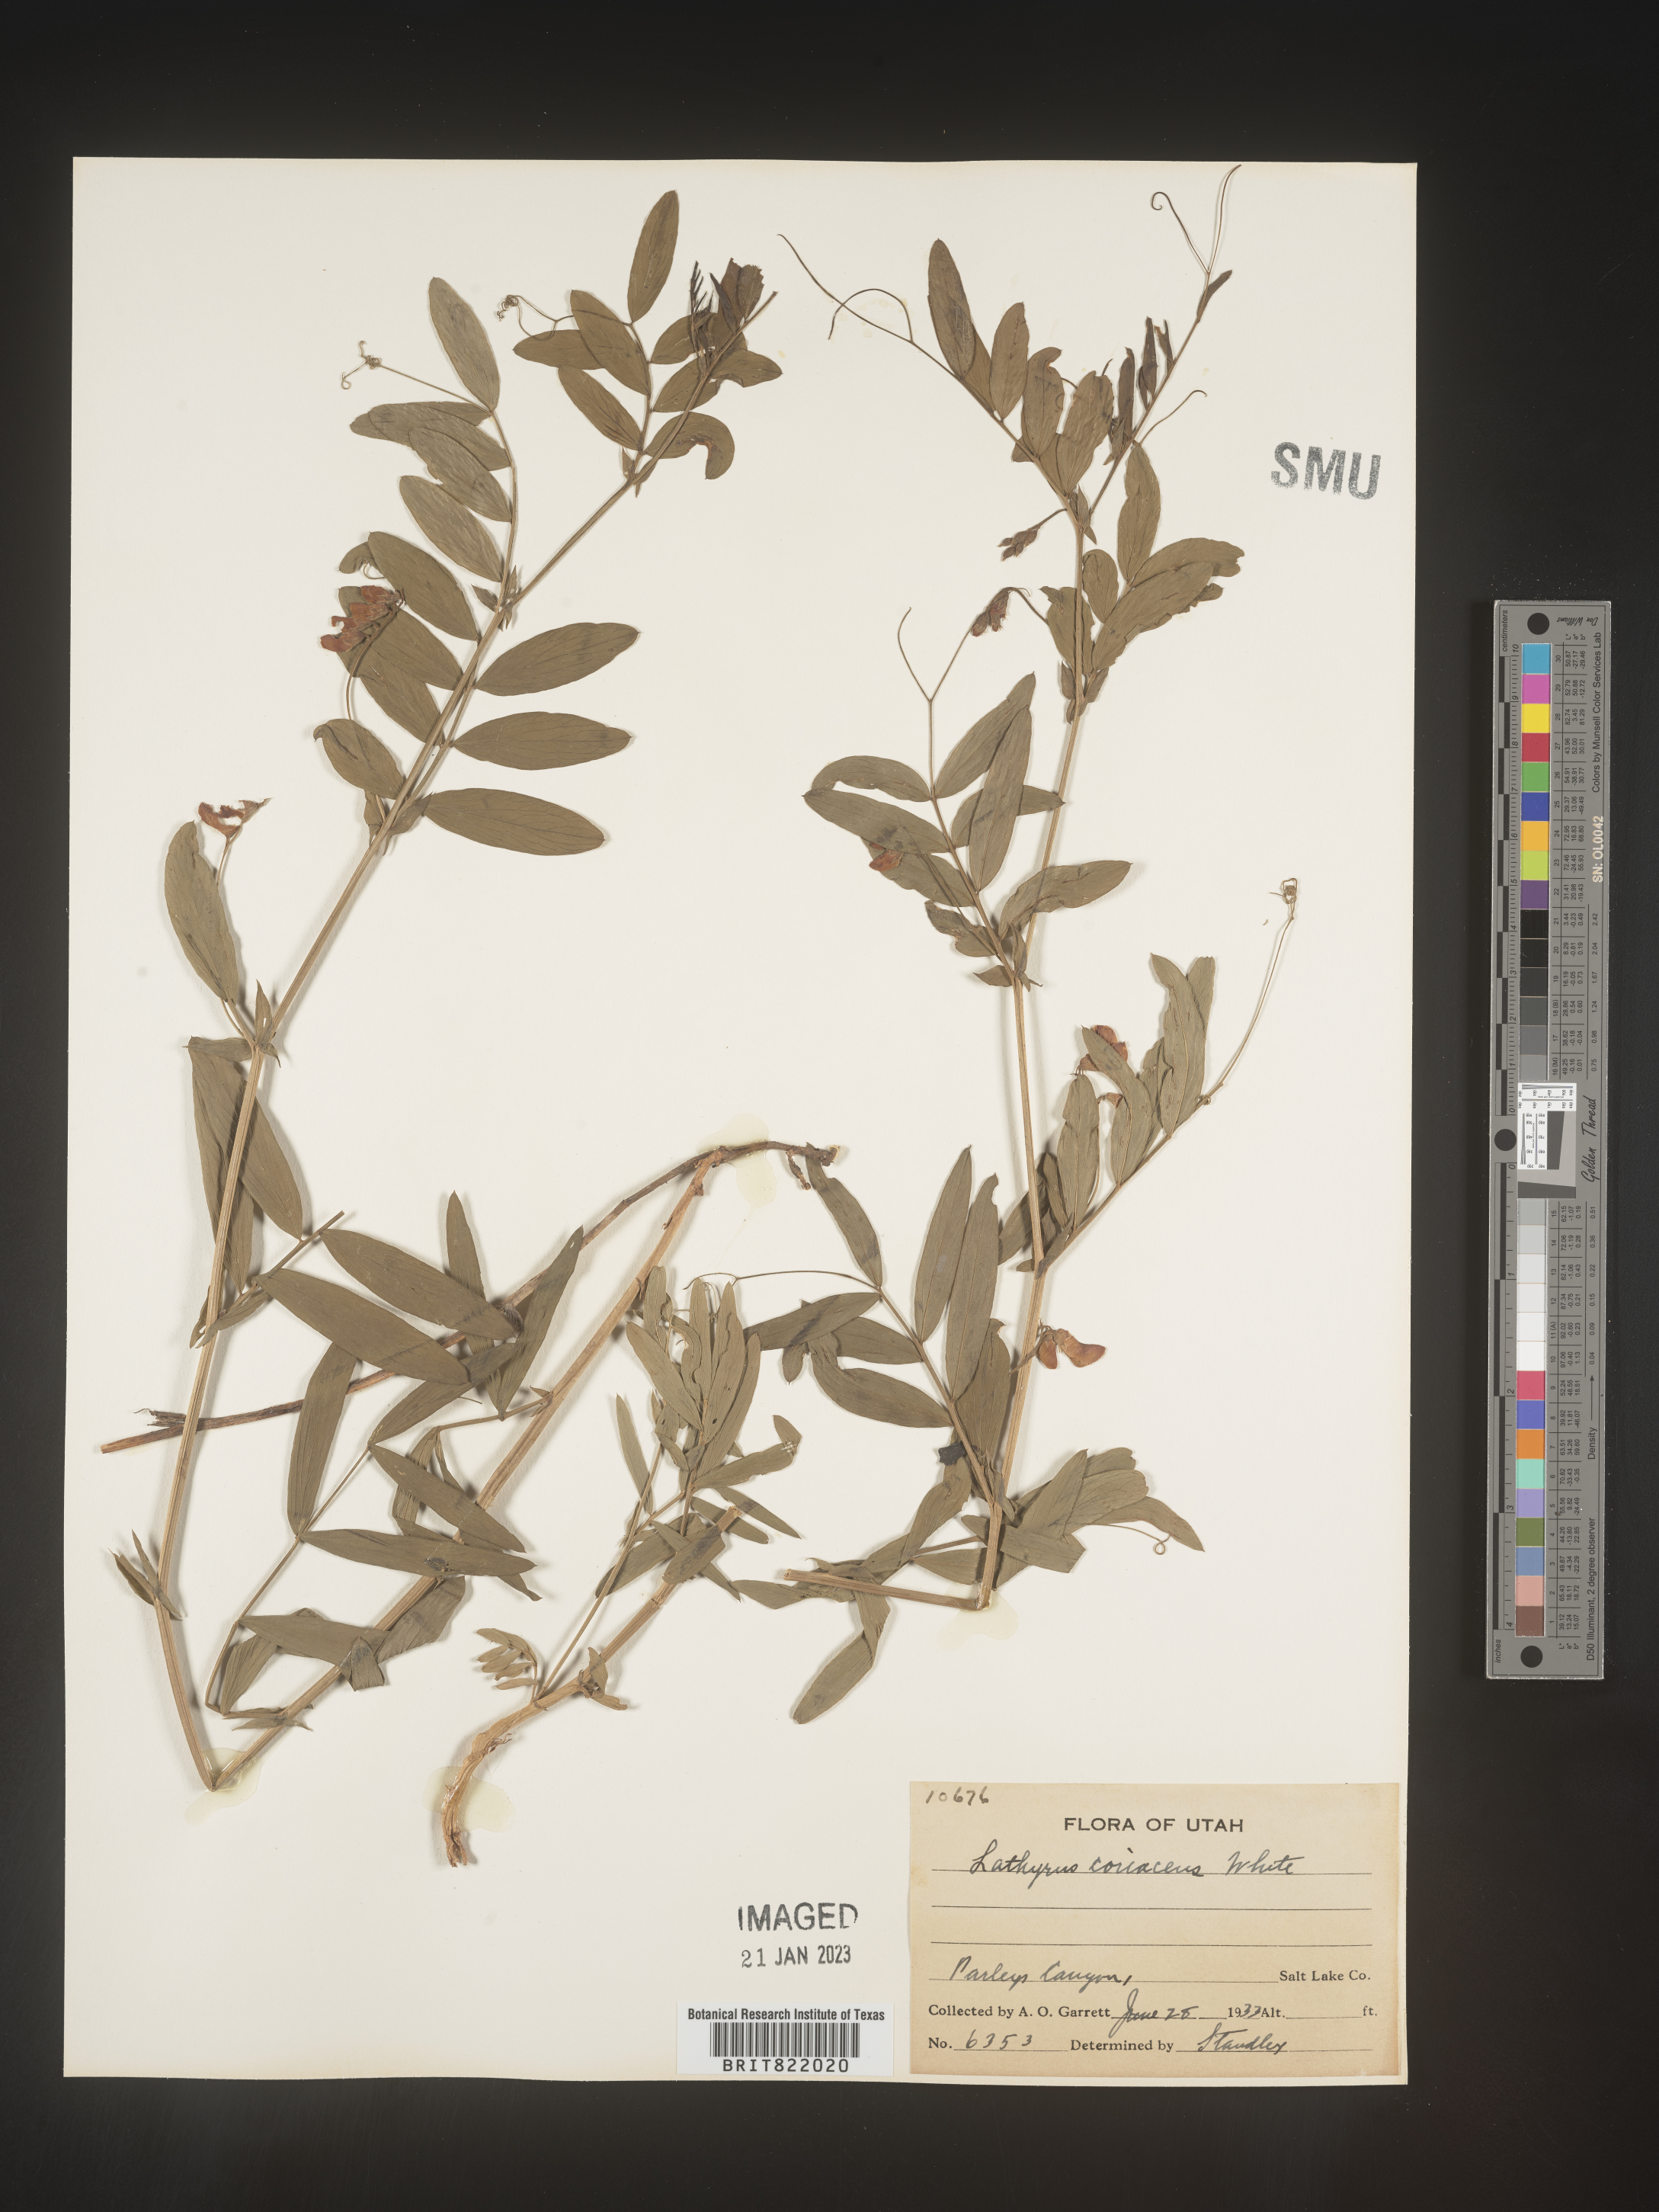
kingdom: Plantae
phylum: Tracheophyta
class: Magnoliopsida
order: Fabales
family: Fabaceae
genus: Lathyrus
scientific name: Lathyrus
